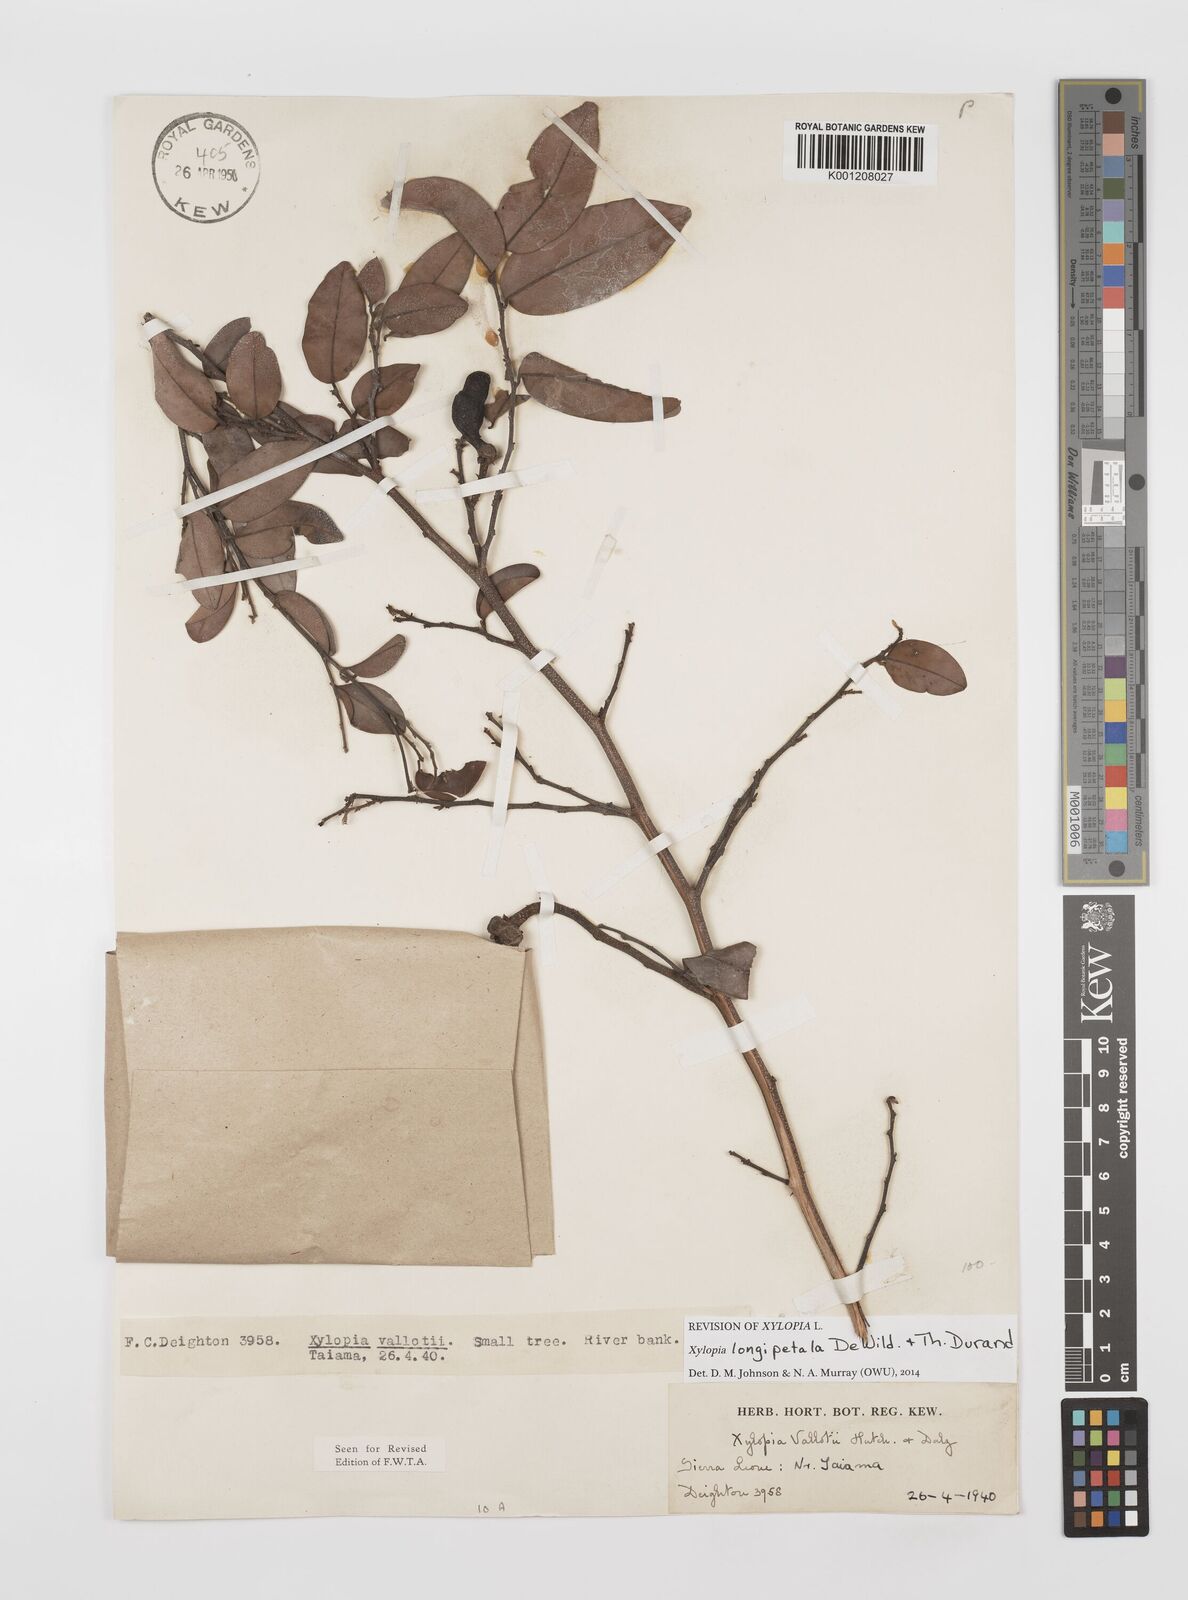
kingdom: Plantae
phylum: Tracheophyta
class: Magnoliopsida
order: Magnoliales
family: Annonaceae
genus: Xylopia
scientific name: Xylopia parviflora
